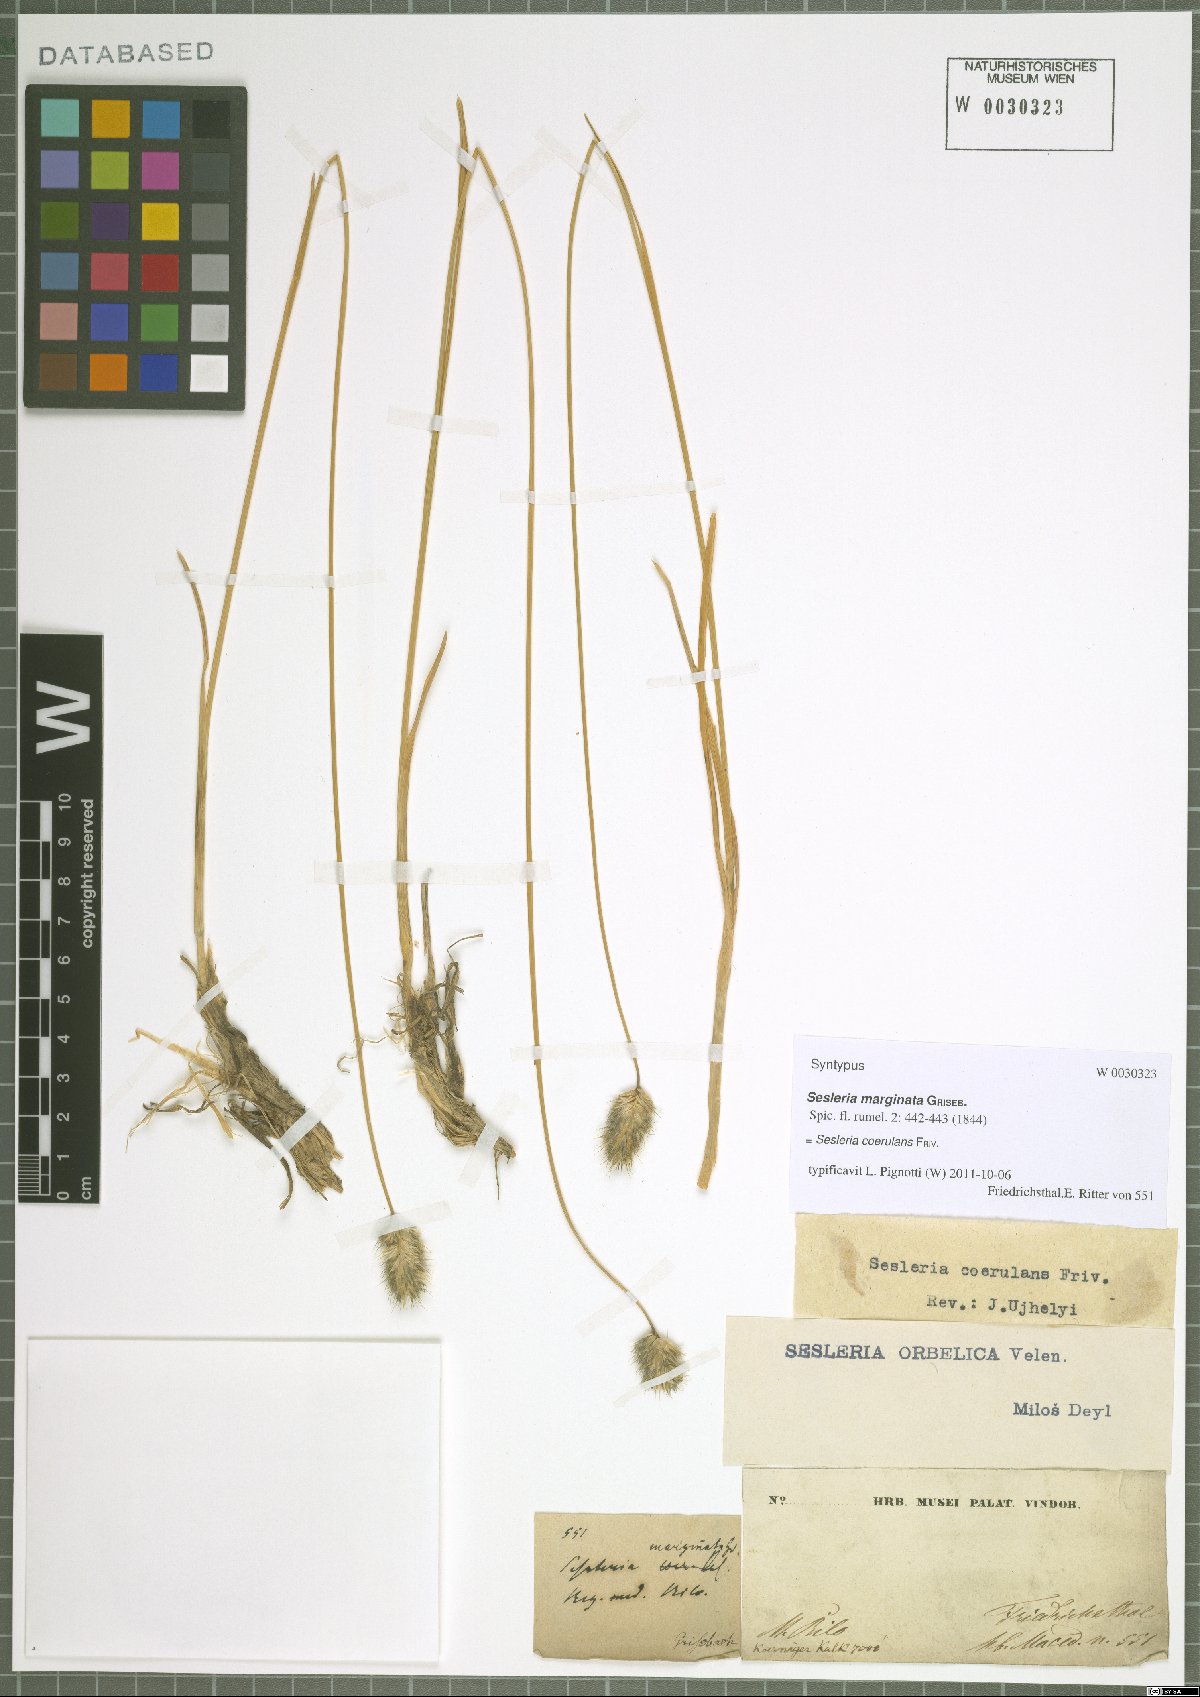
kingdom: Plantae
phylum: Tracheophyta
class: Liliopsida
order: Poales
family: Poaceae
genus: Sesleria
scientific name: Sesleria coerulans
